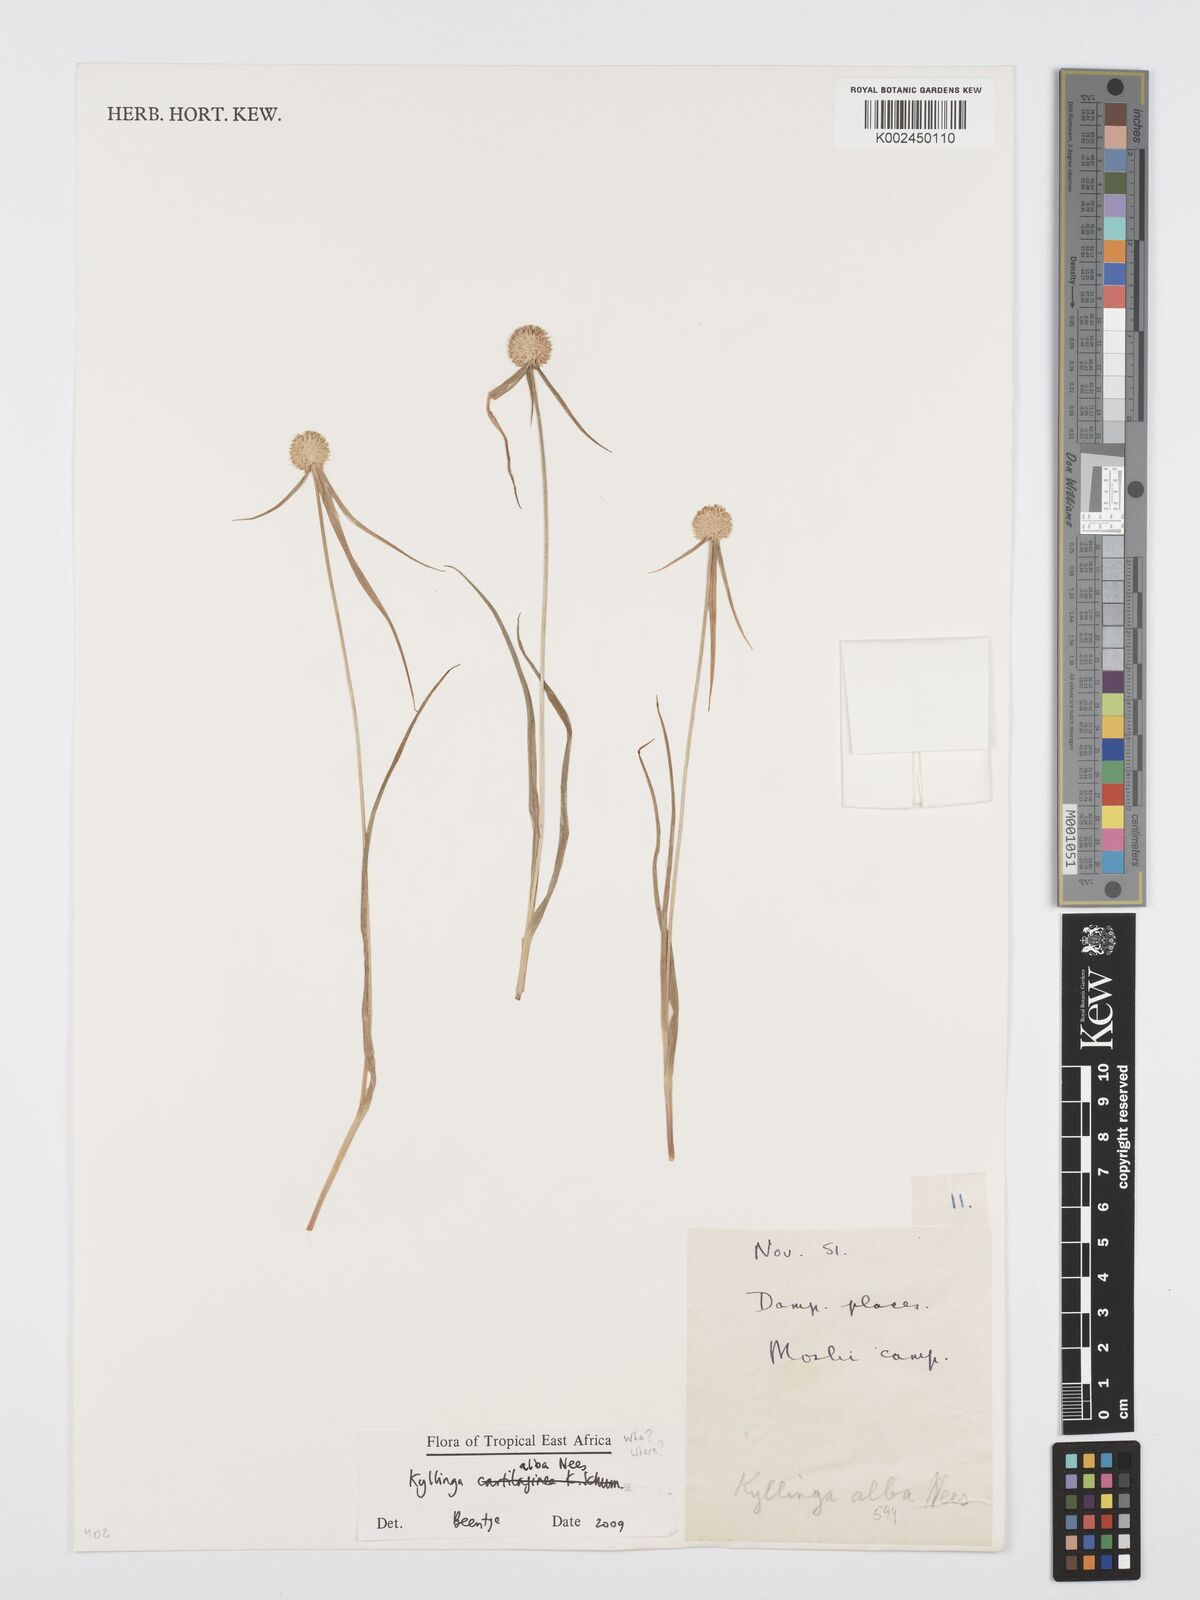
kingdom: Plantae
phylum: Tracheophyta
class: Liliopsida
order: Poales
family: Cyperaceae
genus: Cyperus
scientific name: Cyperus
